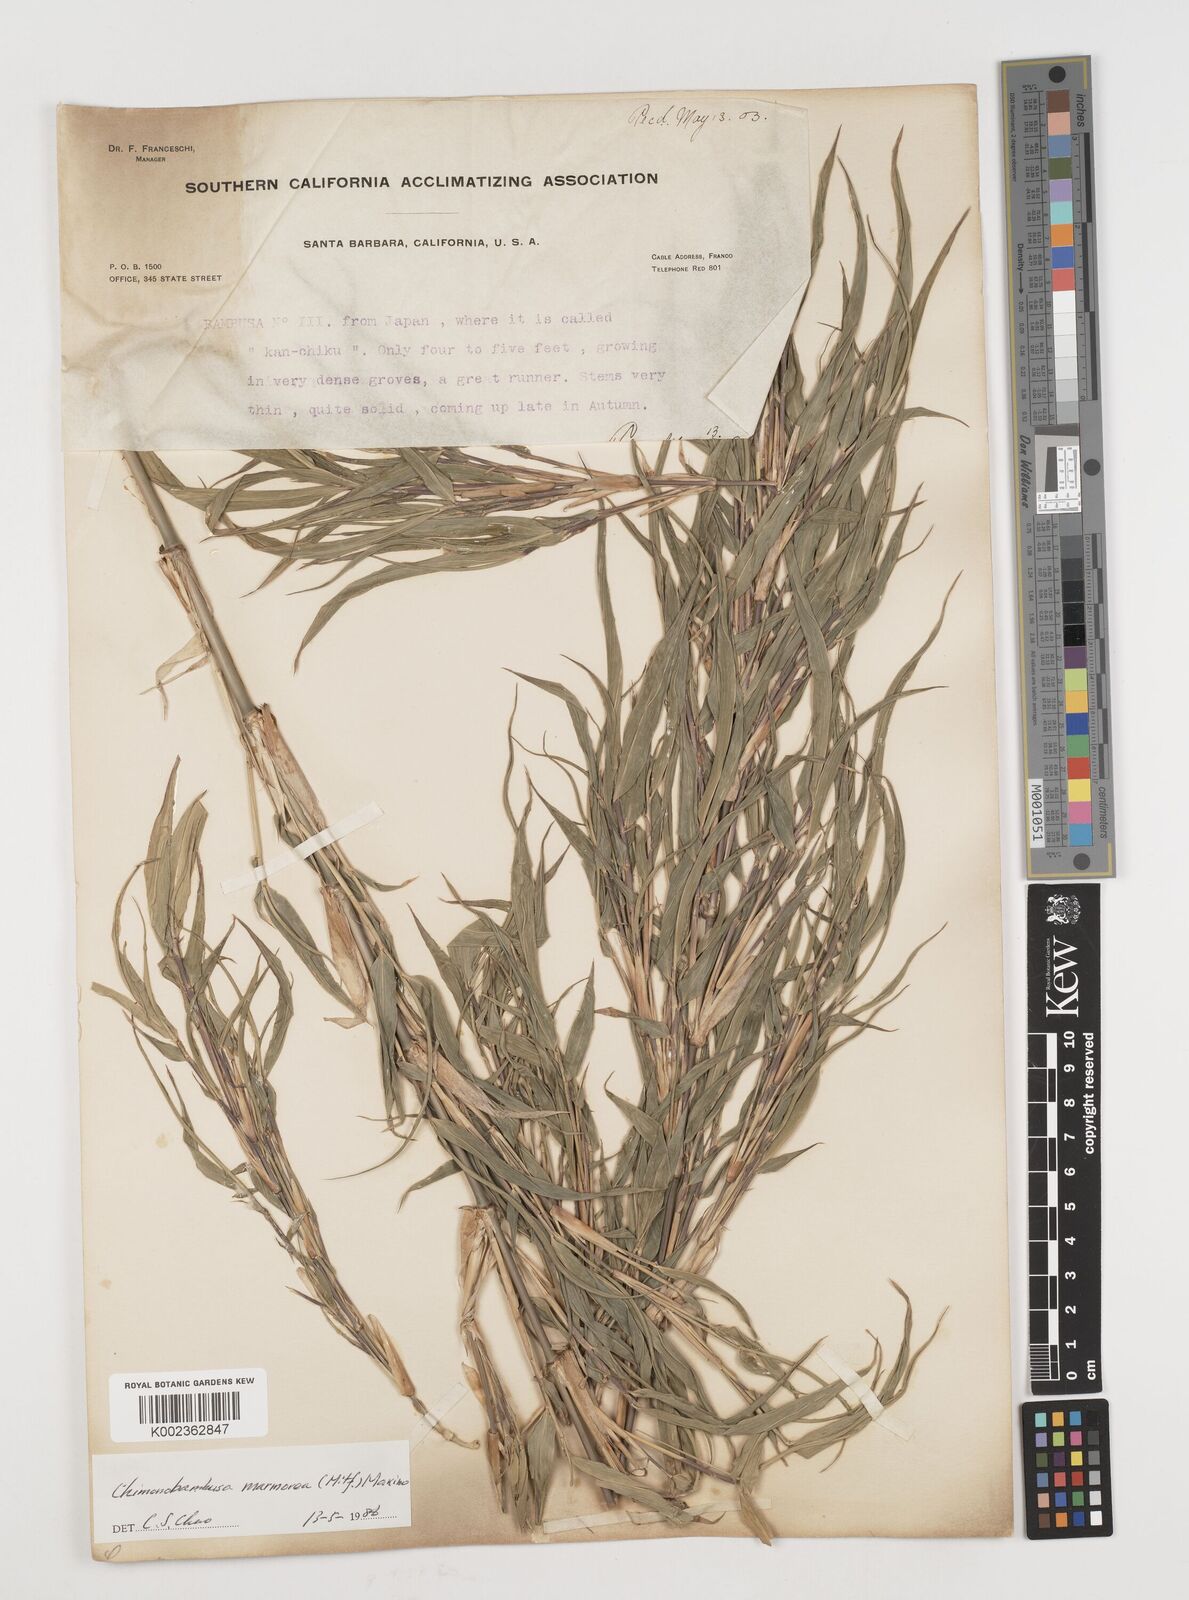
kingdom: Plantae
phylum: Tracheophyta
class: Liliopsida
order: Poales
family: Poaceae
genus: Chimonobambusa
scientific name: Chimonobambusa marmorea
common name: Marbled bamboo
